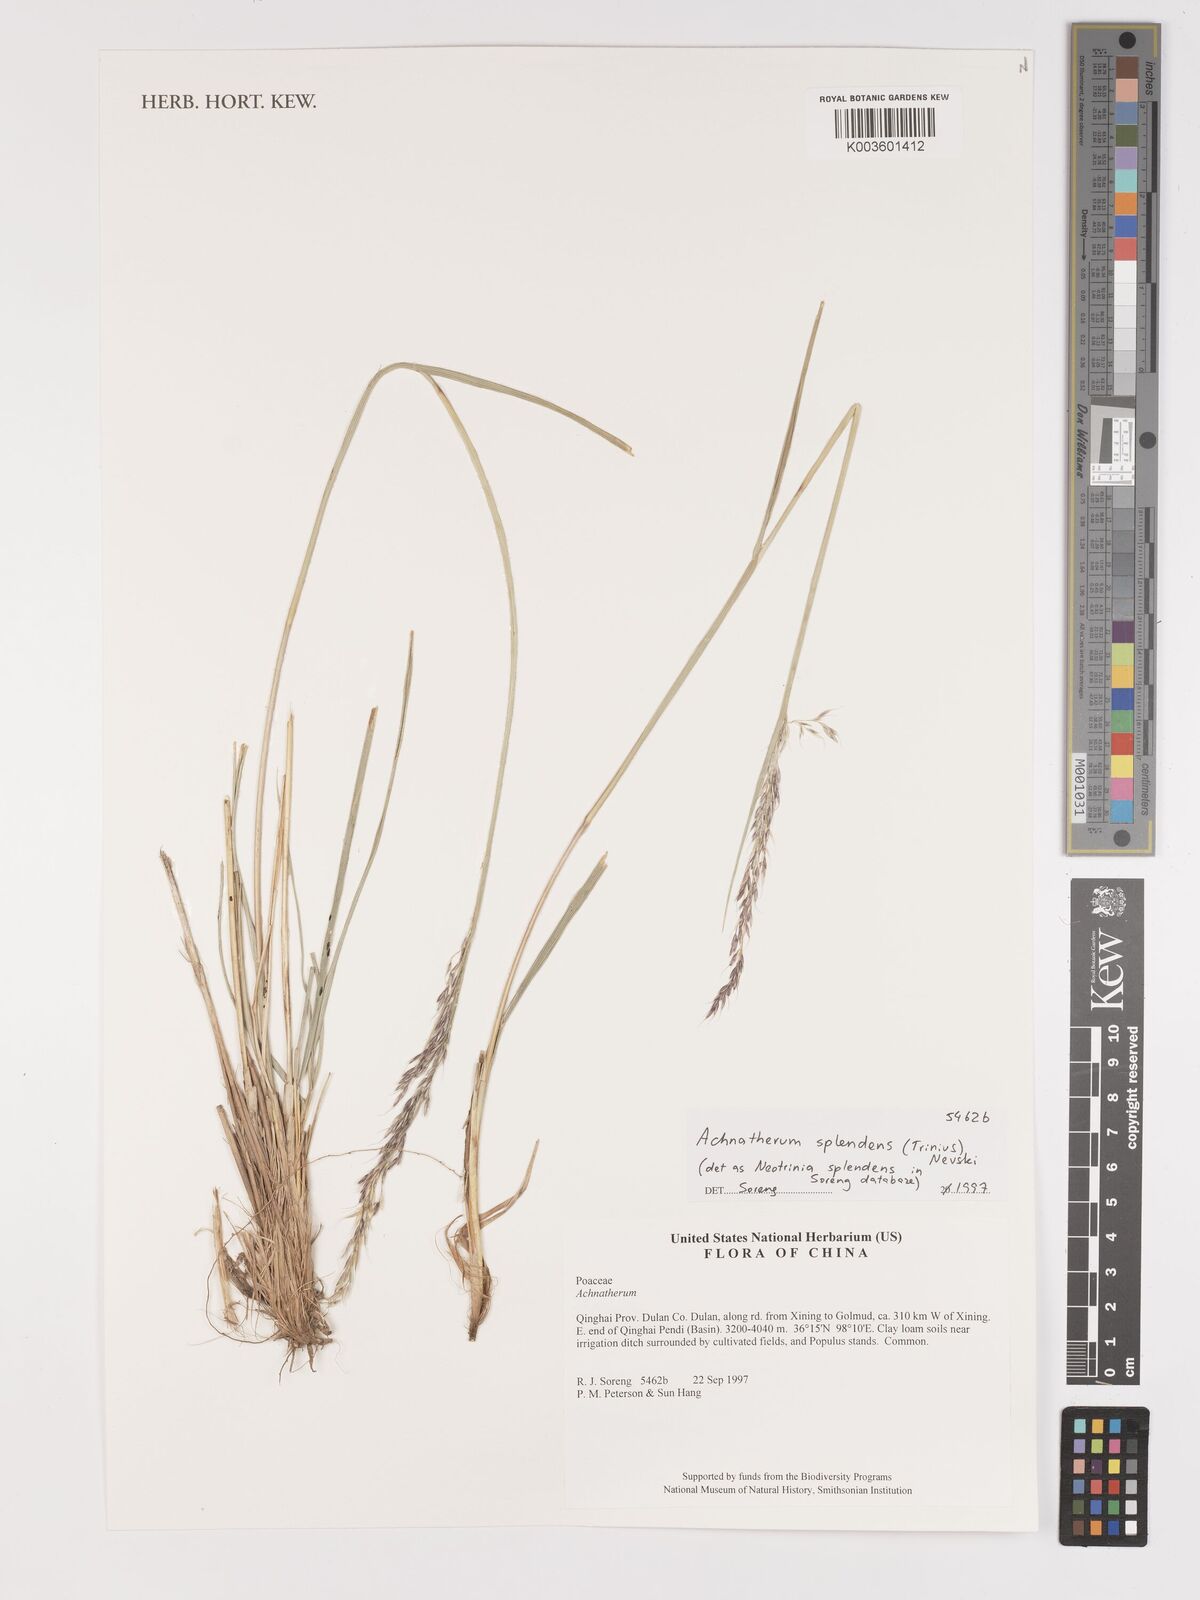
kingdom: Plantae
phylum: Tracheophyta
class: Liliopsida
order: Poales
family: Poaceae
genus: Neotrinia
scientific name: Neotrinia splendens
